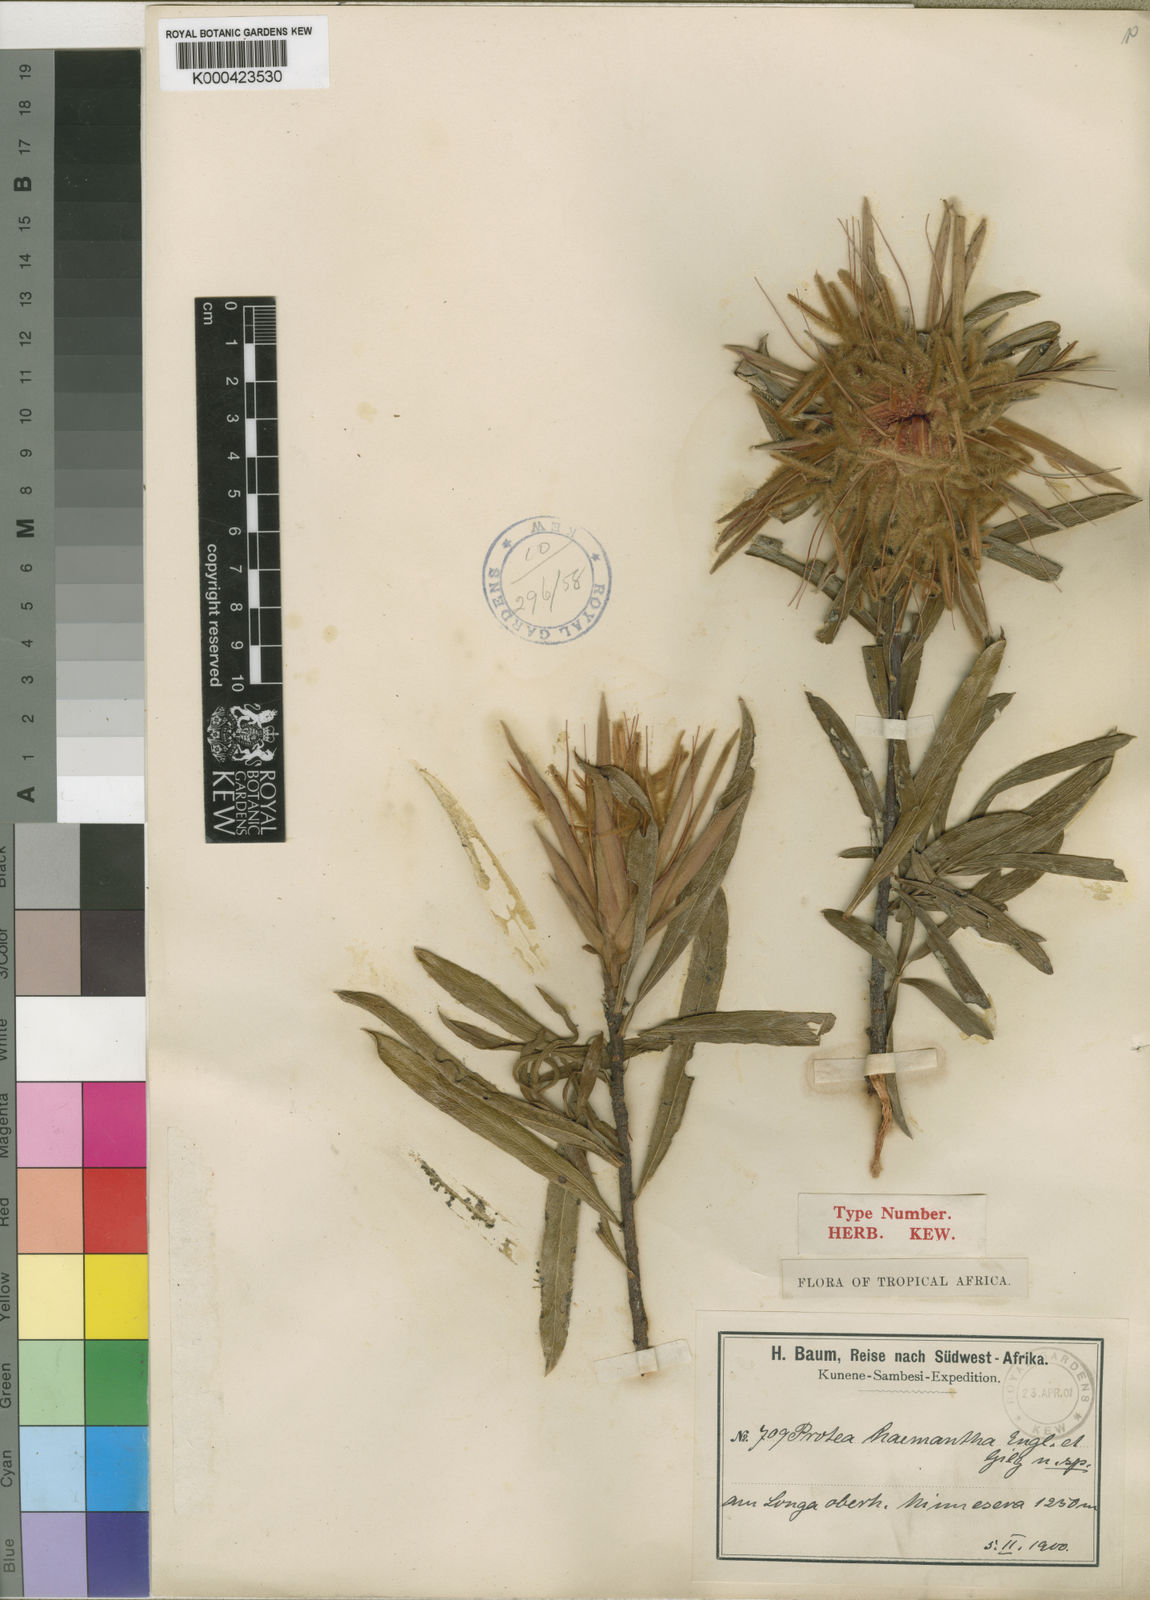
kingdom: Plantae
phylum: Tracheophyta
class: Magnoliopsida
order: Proteales
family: Proteaceae
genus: Protea
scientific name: Protea poggei
